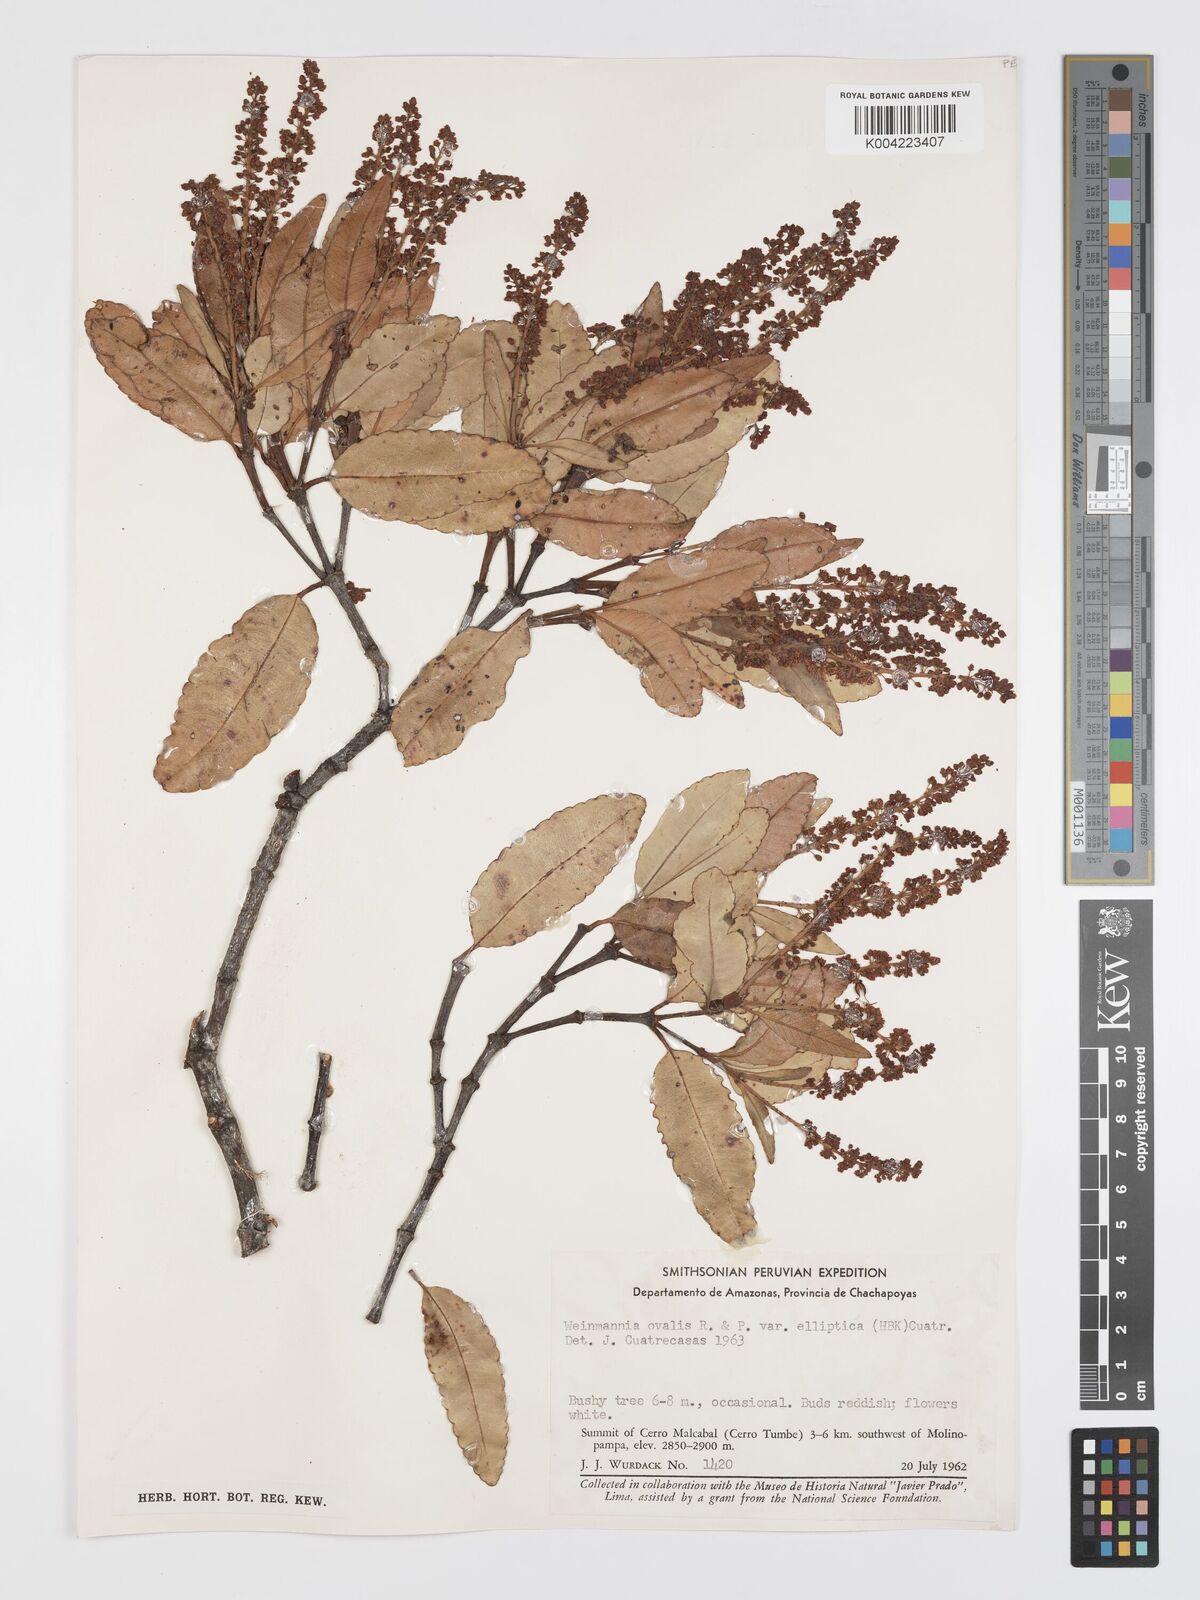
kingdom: Plantae
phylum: Tracheophyta
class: Magnoliopsida
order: Oxalidales
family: Cunoniaceae
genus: Weinmannia
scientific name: Weinmannia ovata
